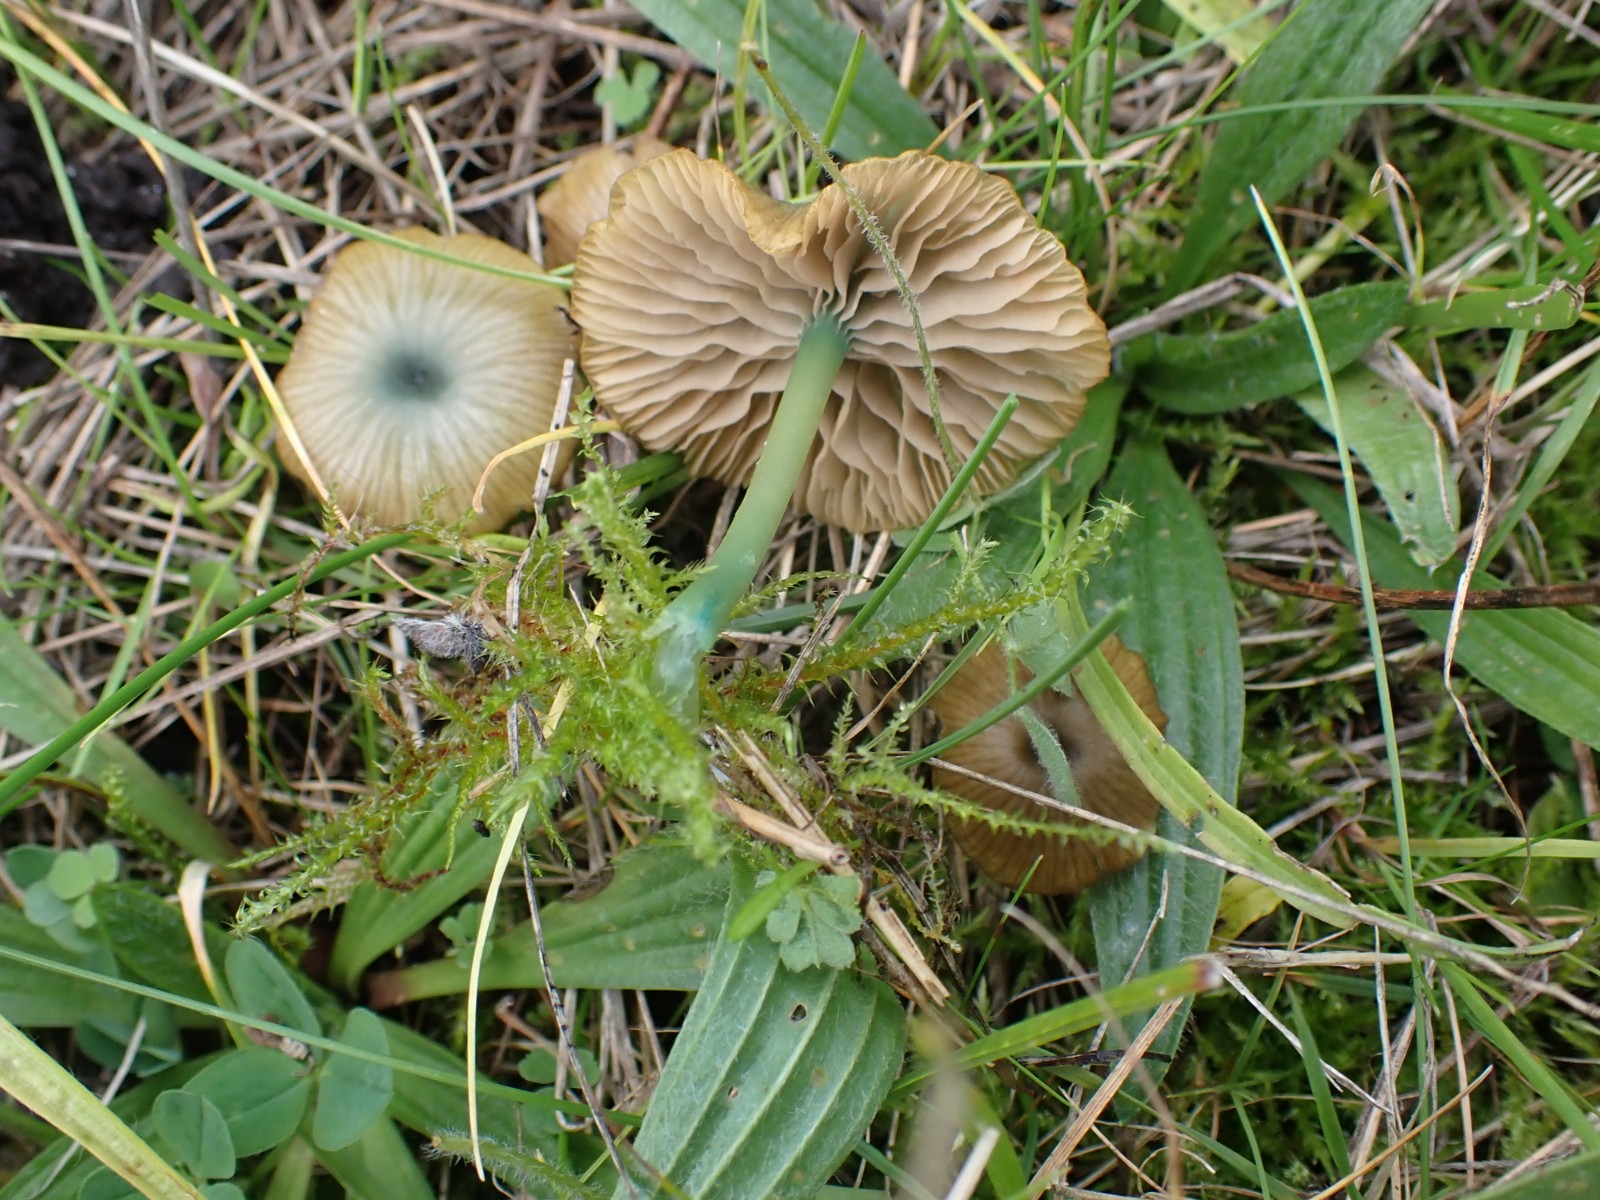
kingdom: Fungi
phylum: Basidiomycota
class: Agaricomycetes
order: Agaricales
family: Entolomataceae
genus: Entoloma
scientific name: Entoloma incanum
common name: grøngul rødblad
